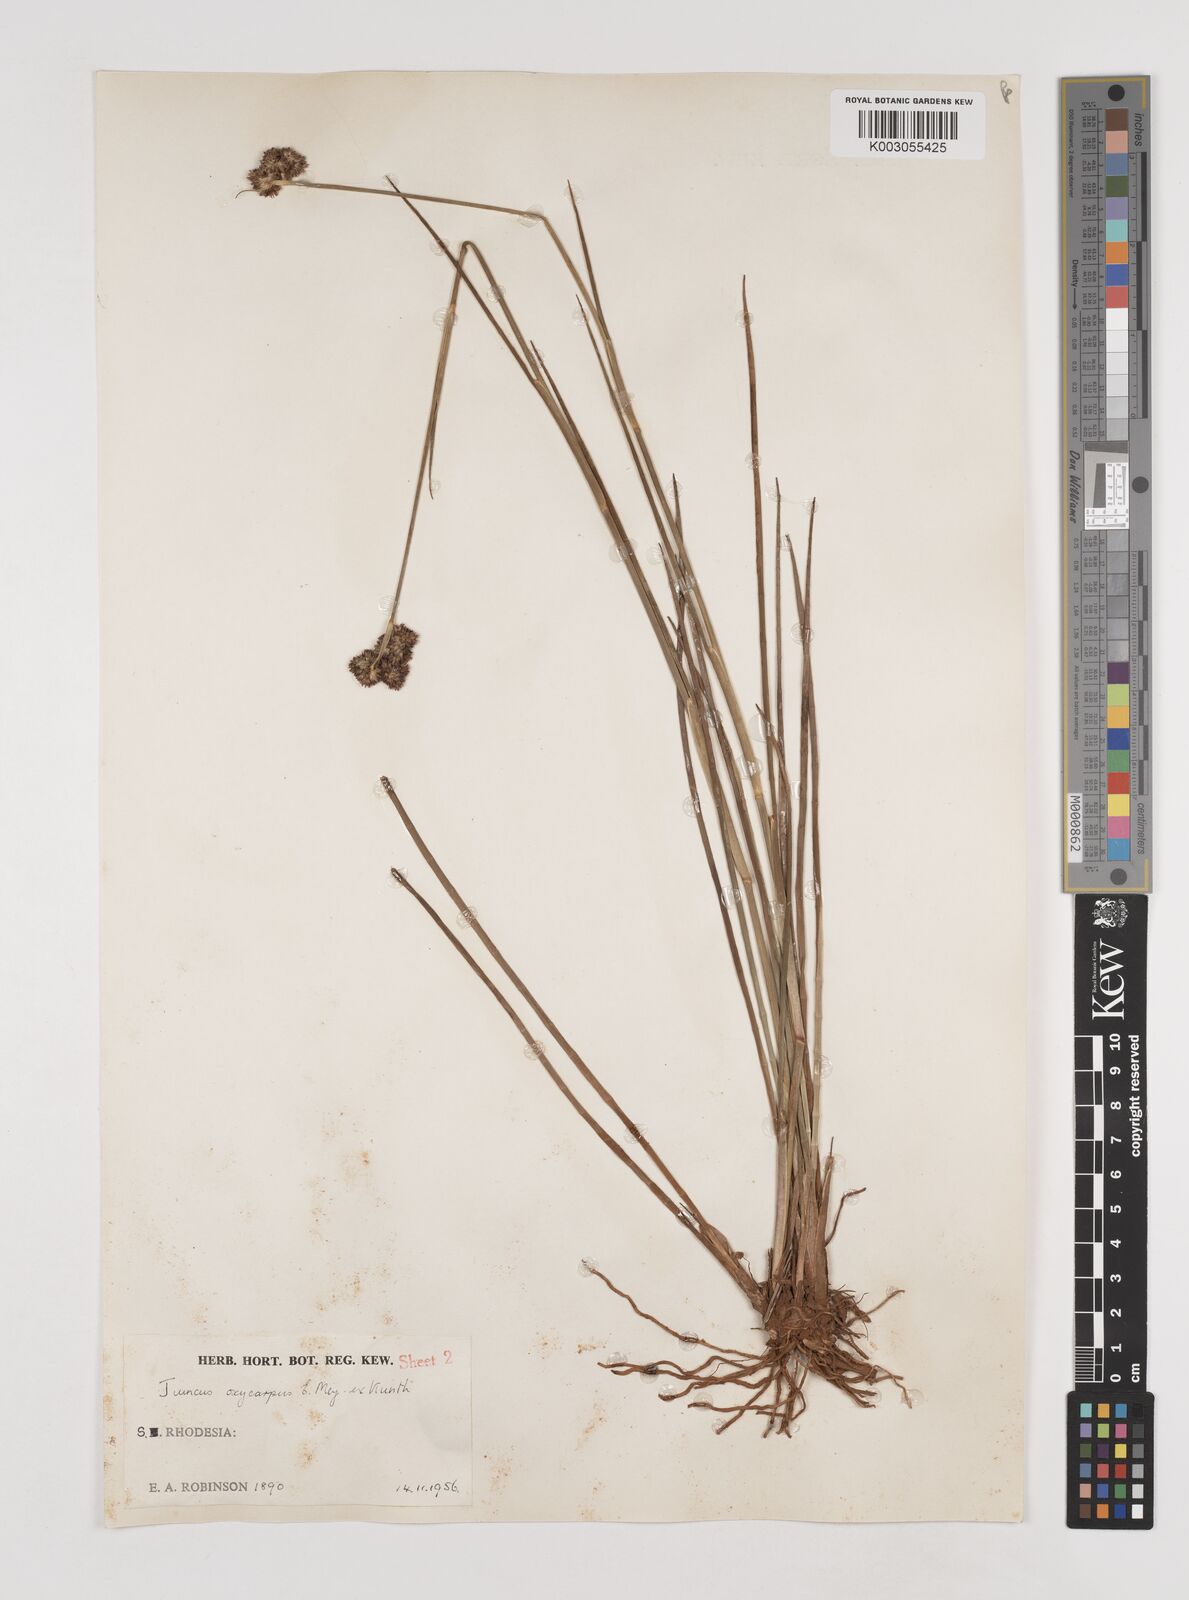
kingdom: Plantae
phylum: Tracheophyta
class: Liliopsida
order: Poales
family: Juncaceae
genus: Juncus
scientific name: Juncus oxycarpus
